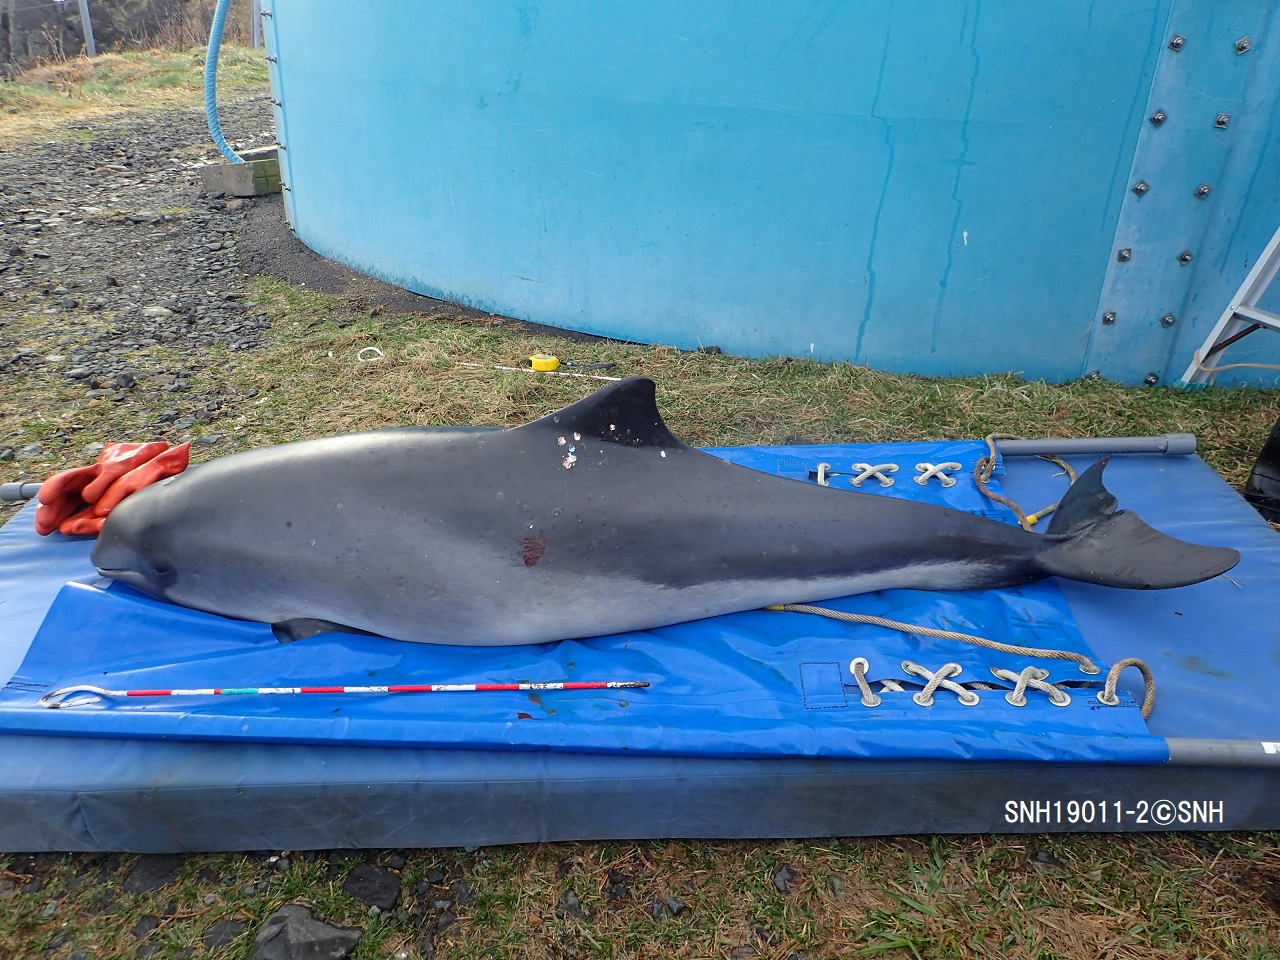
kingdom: Animalia
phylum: Chordata
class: Mammalia
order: Cetacea
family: Phocoenidae
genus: Phocoena
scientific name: Phocoena phocoena
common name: Harbour porpoise
